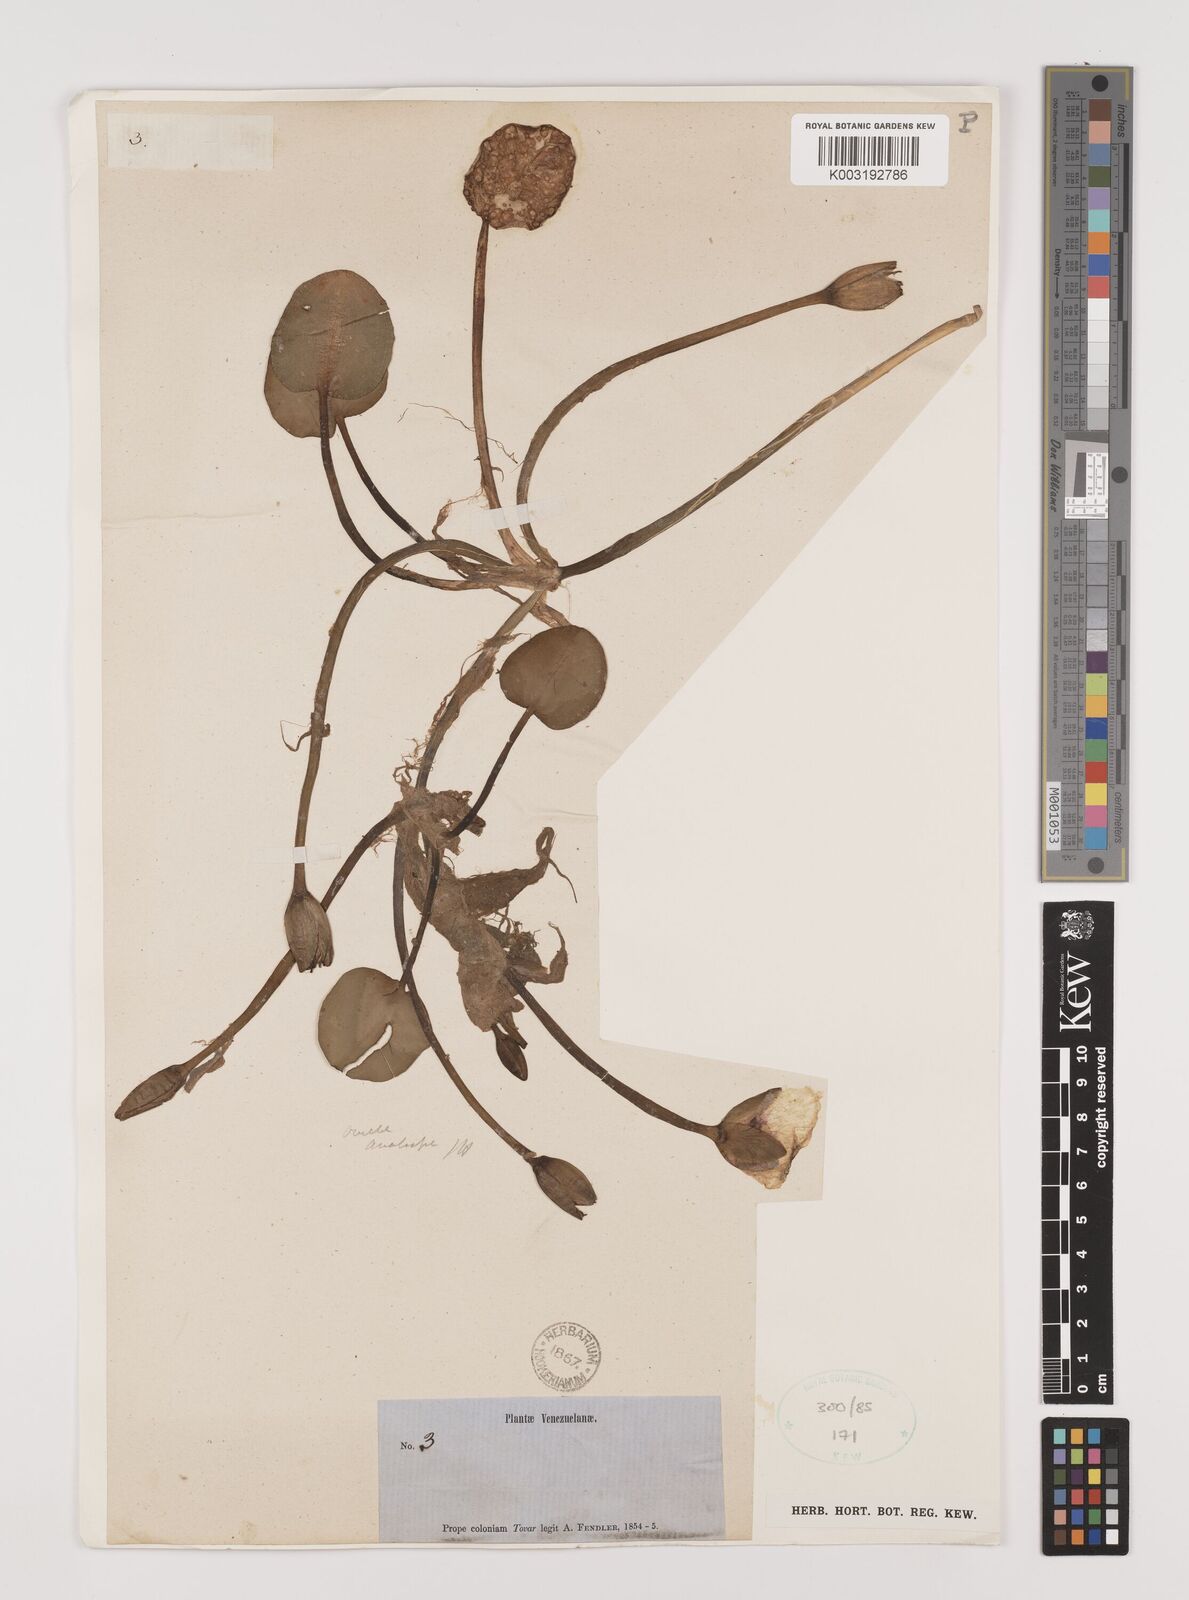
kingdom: Plantae
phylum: Tracheophyta
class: Liliopsida
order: Alismatales
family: Alismataceae
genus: Hydrocleys
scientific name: Hydrocleys nymphoides
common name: Water-poppy
